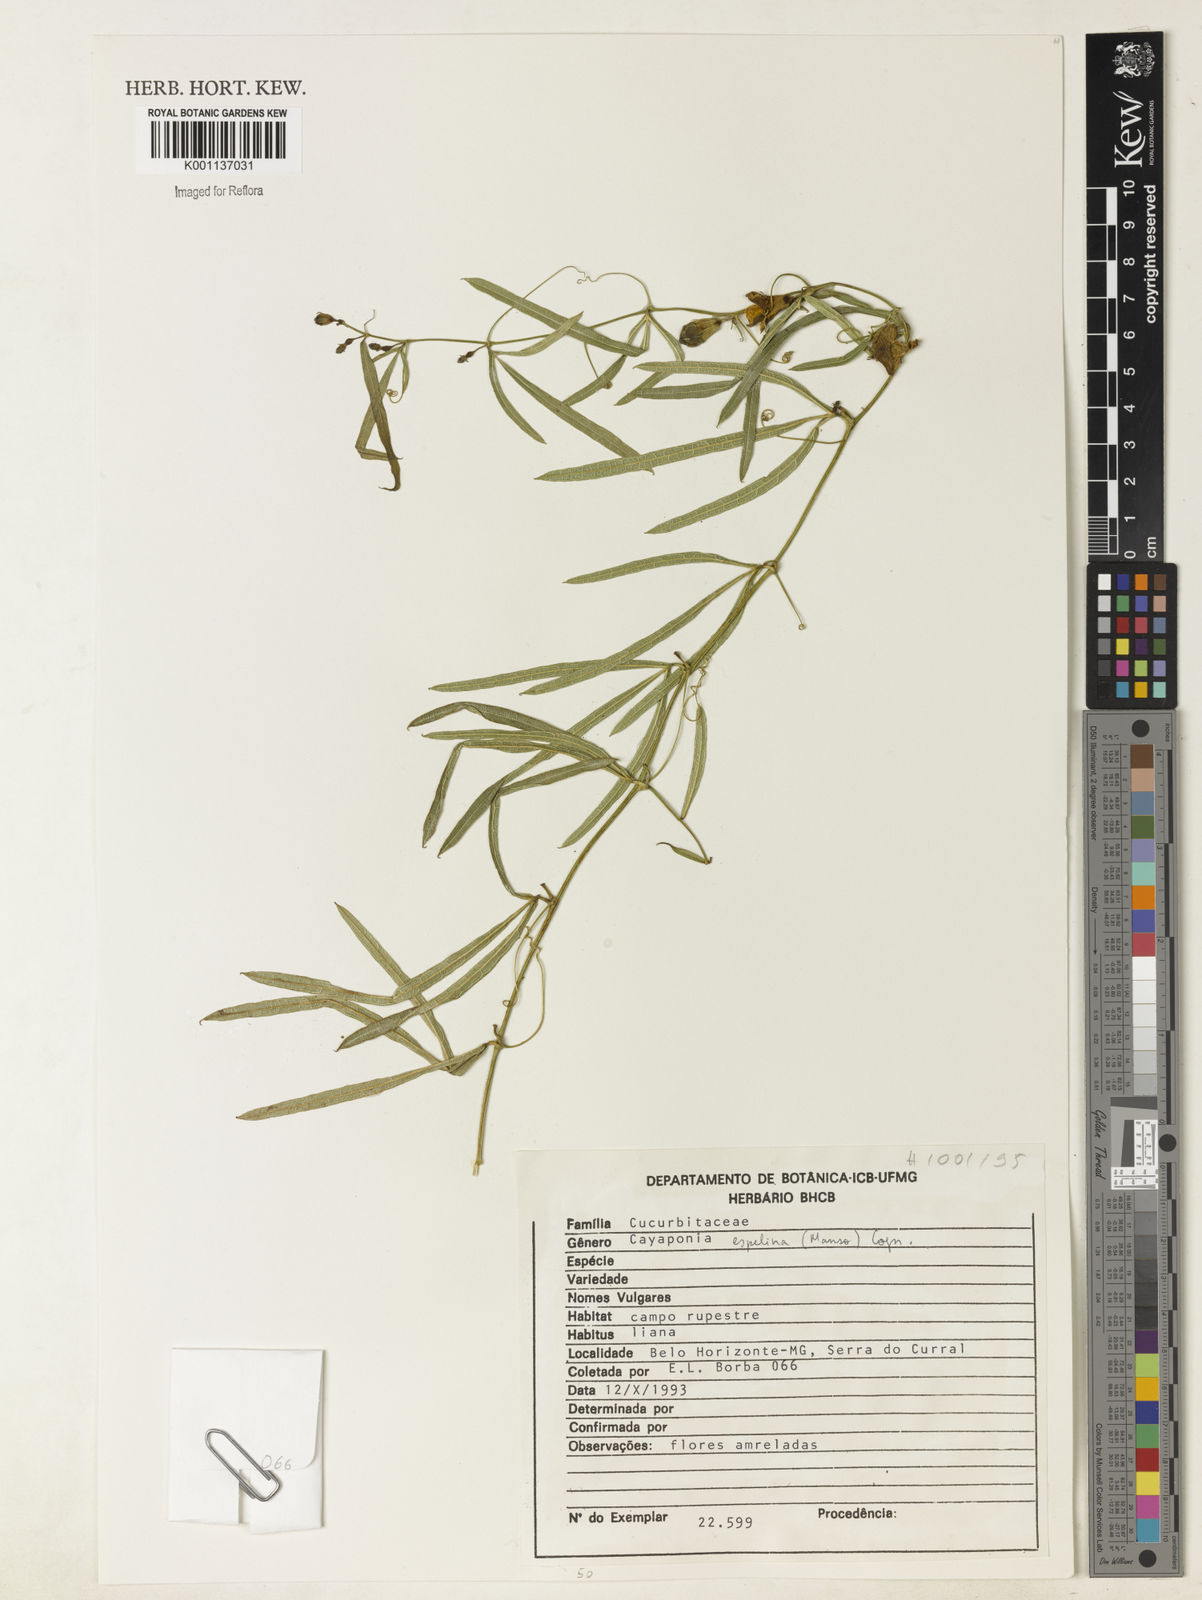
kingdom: Plantae
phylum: Tracheophyta
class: Magnoliopsida
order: Cucurbitales
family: Cucurbitaceae
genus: Cayaponia
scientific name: Cayaponia espelina
